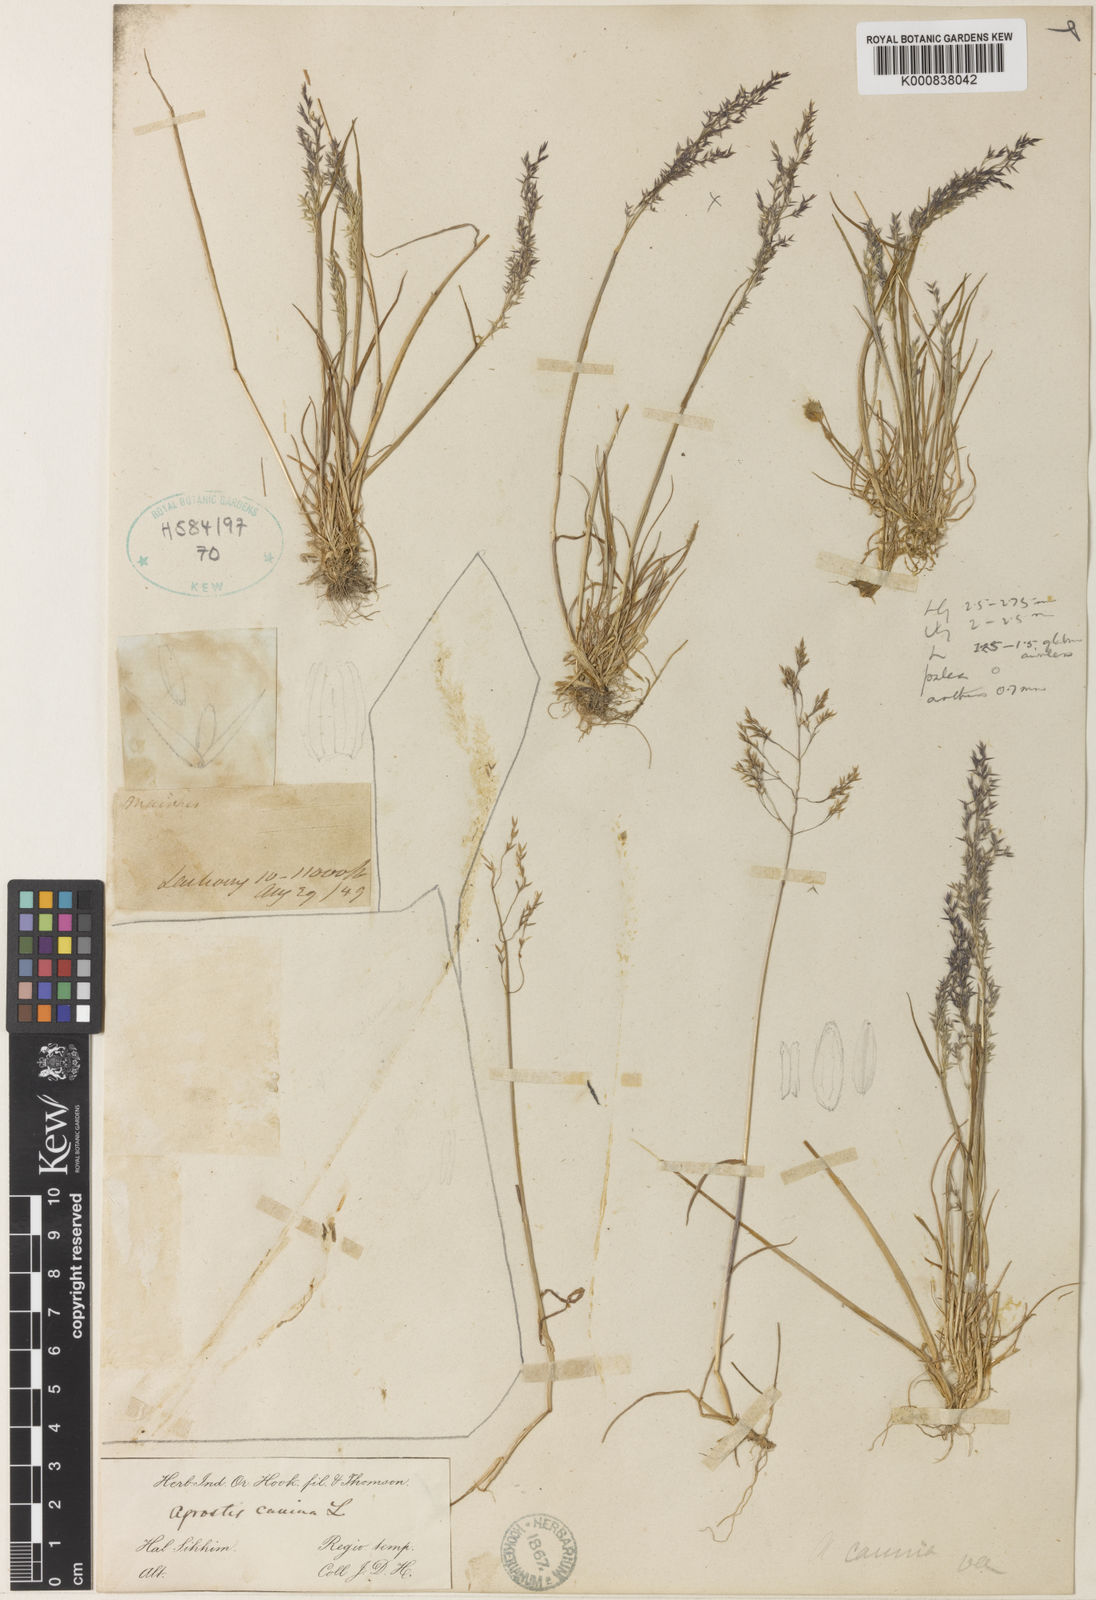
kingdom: Plantae
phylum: Tracheophyta
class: Liliopsida
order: Poales
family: Poaceae
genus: Agrostis
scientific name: Agrostis nervosa
